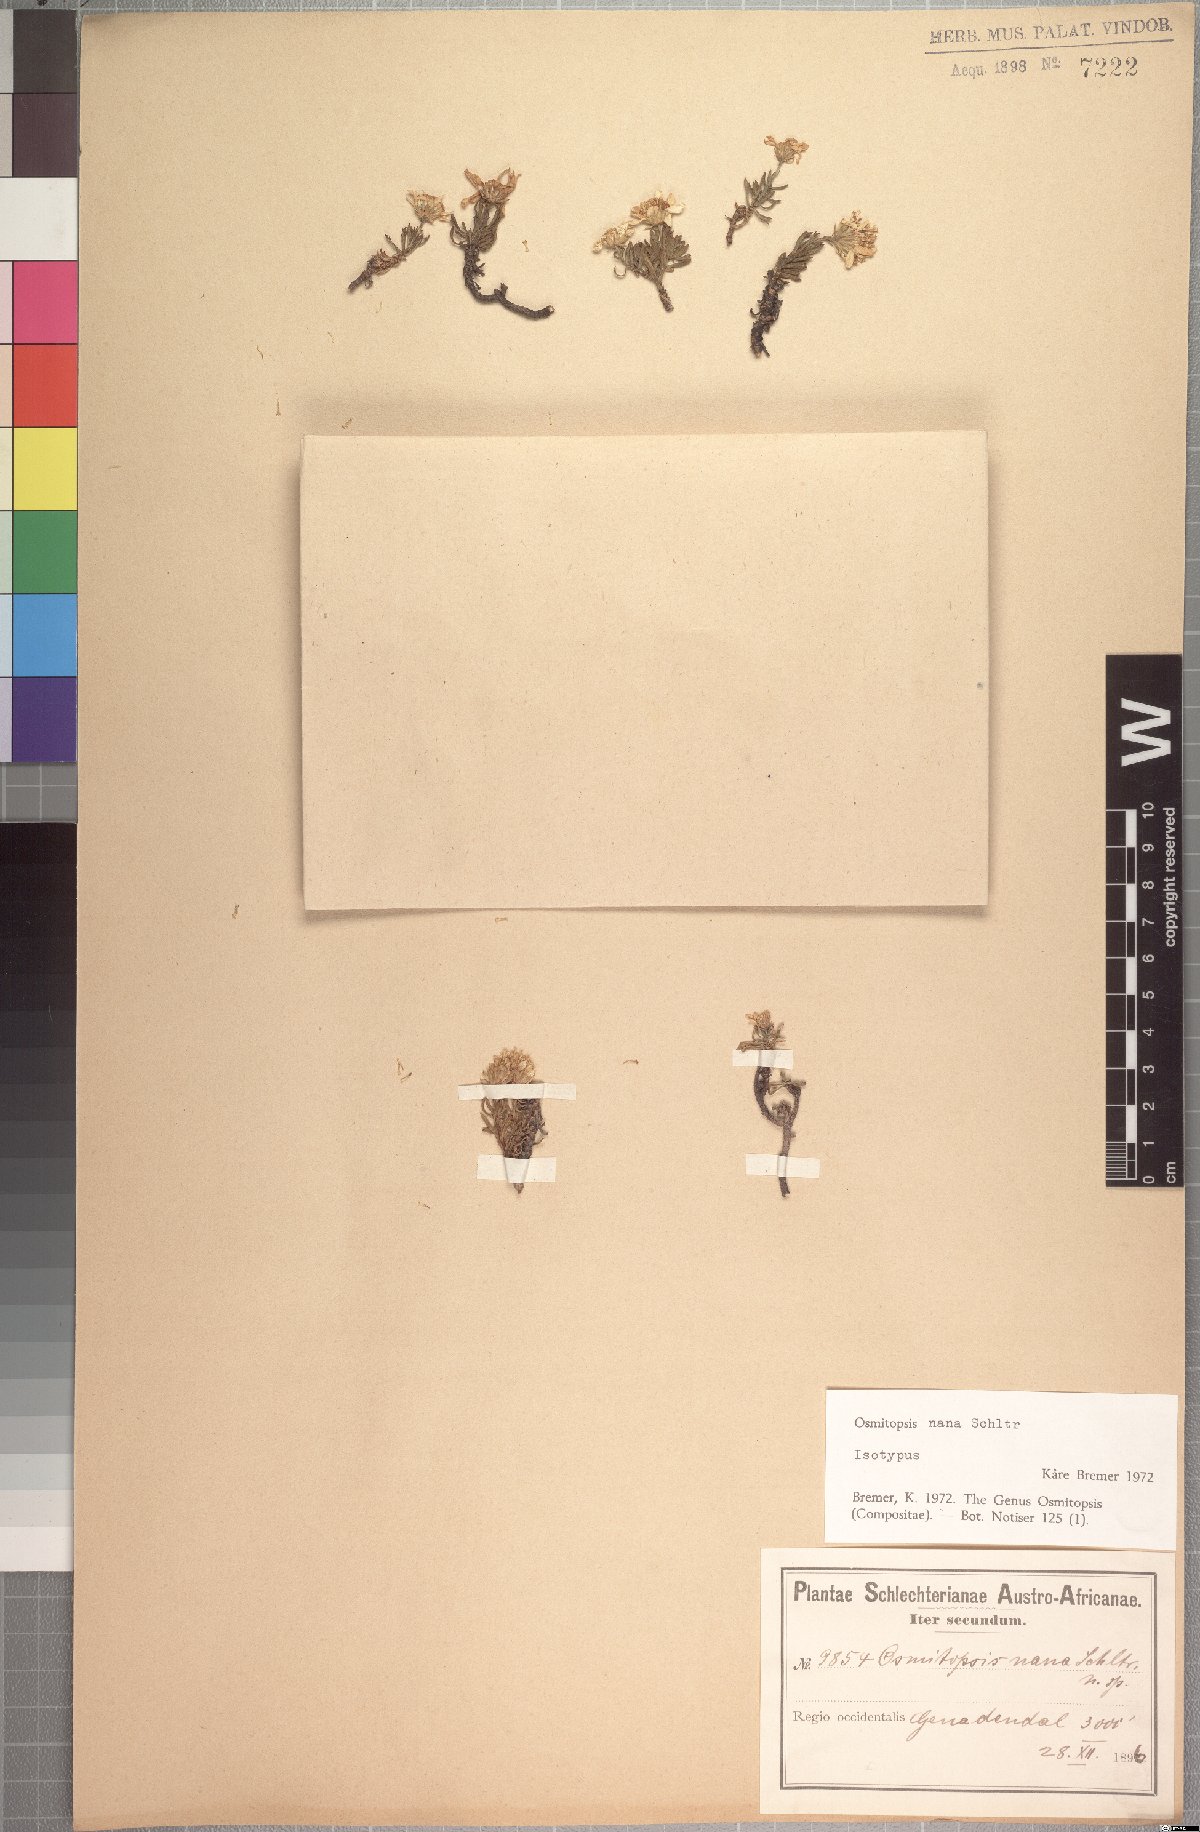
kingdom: Plantae
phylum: Tracheophyta
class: Magnoliopsida
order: Asterales
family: Asteraceae
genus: Osmitopsis
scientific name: Osmitopsis nana
